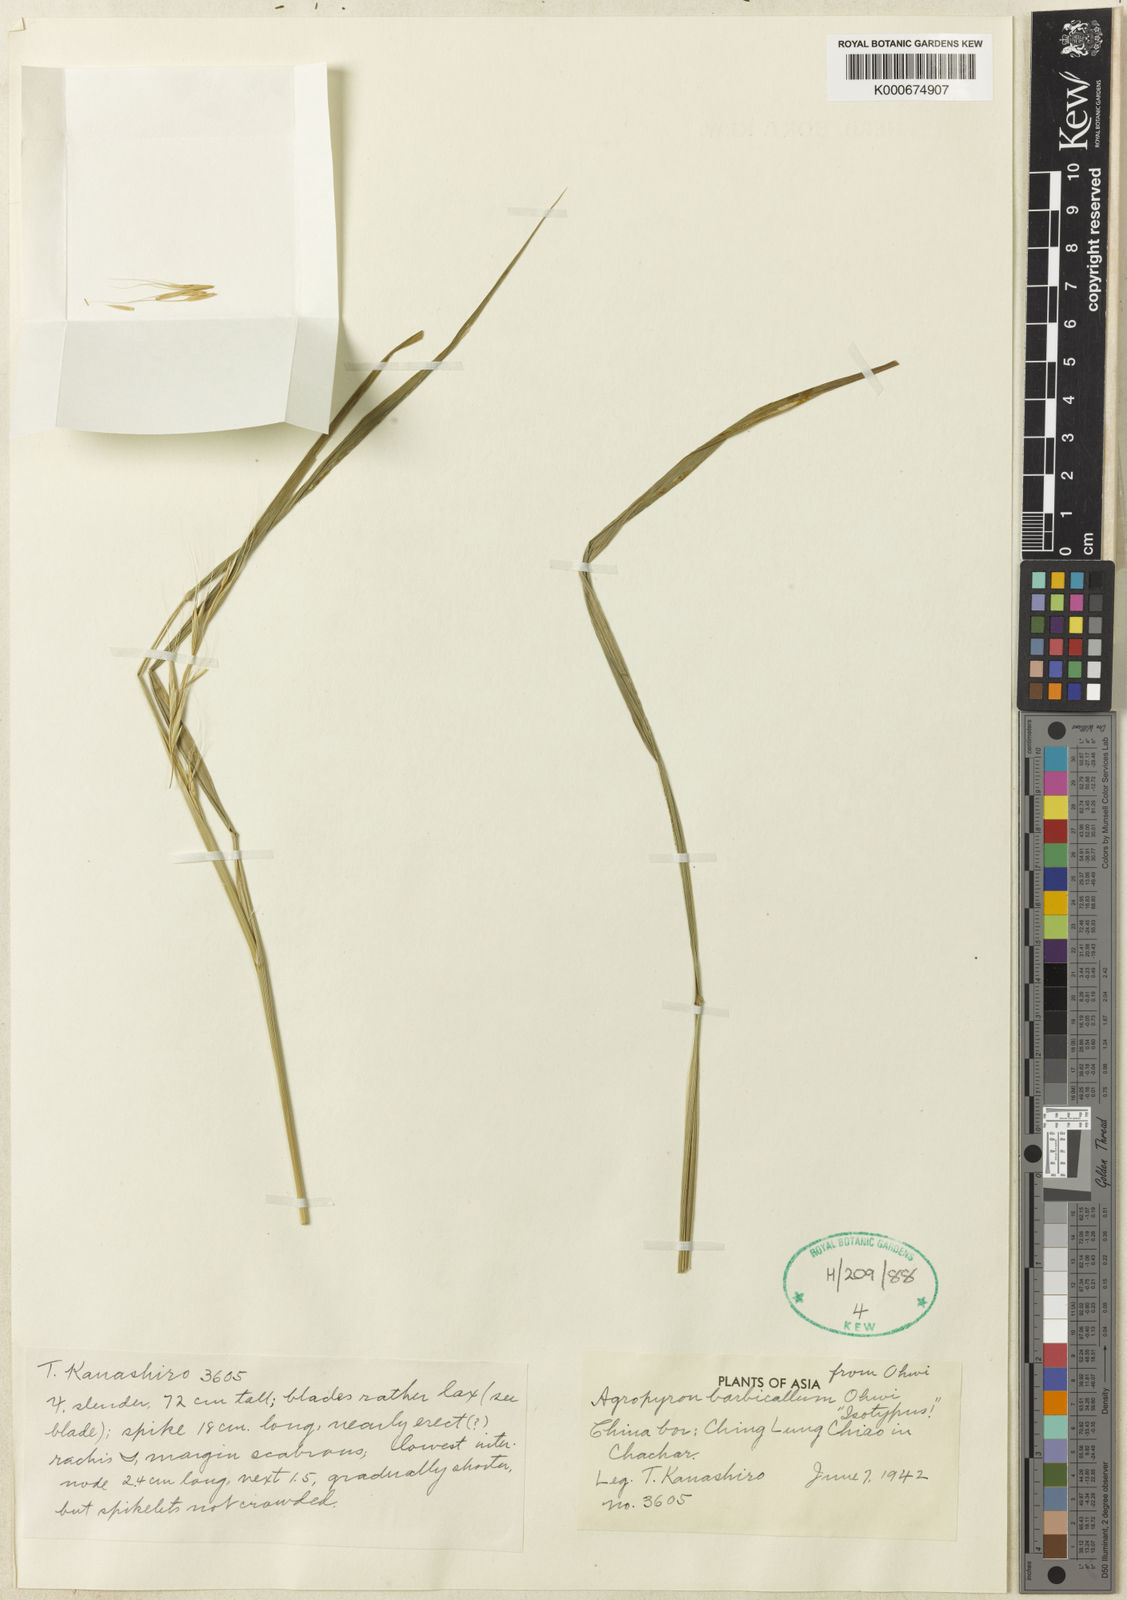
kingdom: Plantae
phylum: Tracheophyta
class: Liliopsida
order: Poales
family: Poaceae
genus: Elymus
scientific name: Elymus barbicallus
